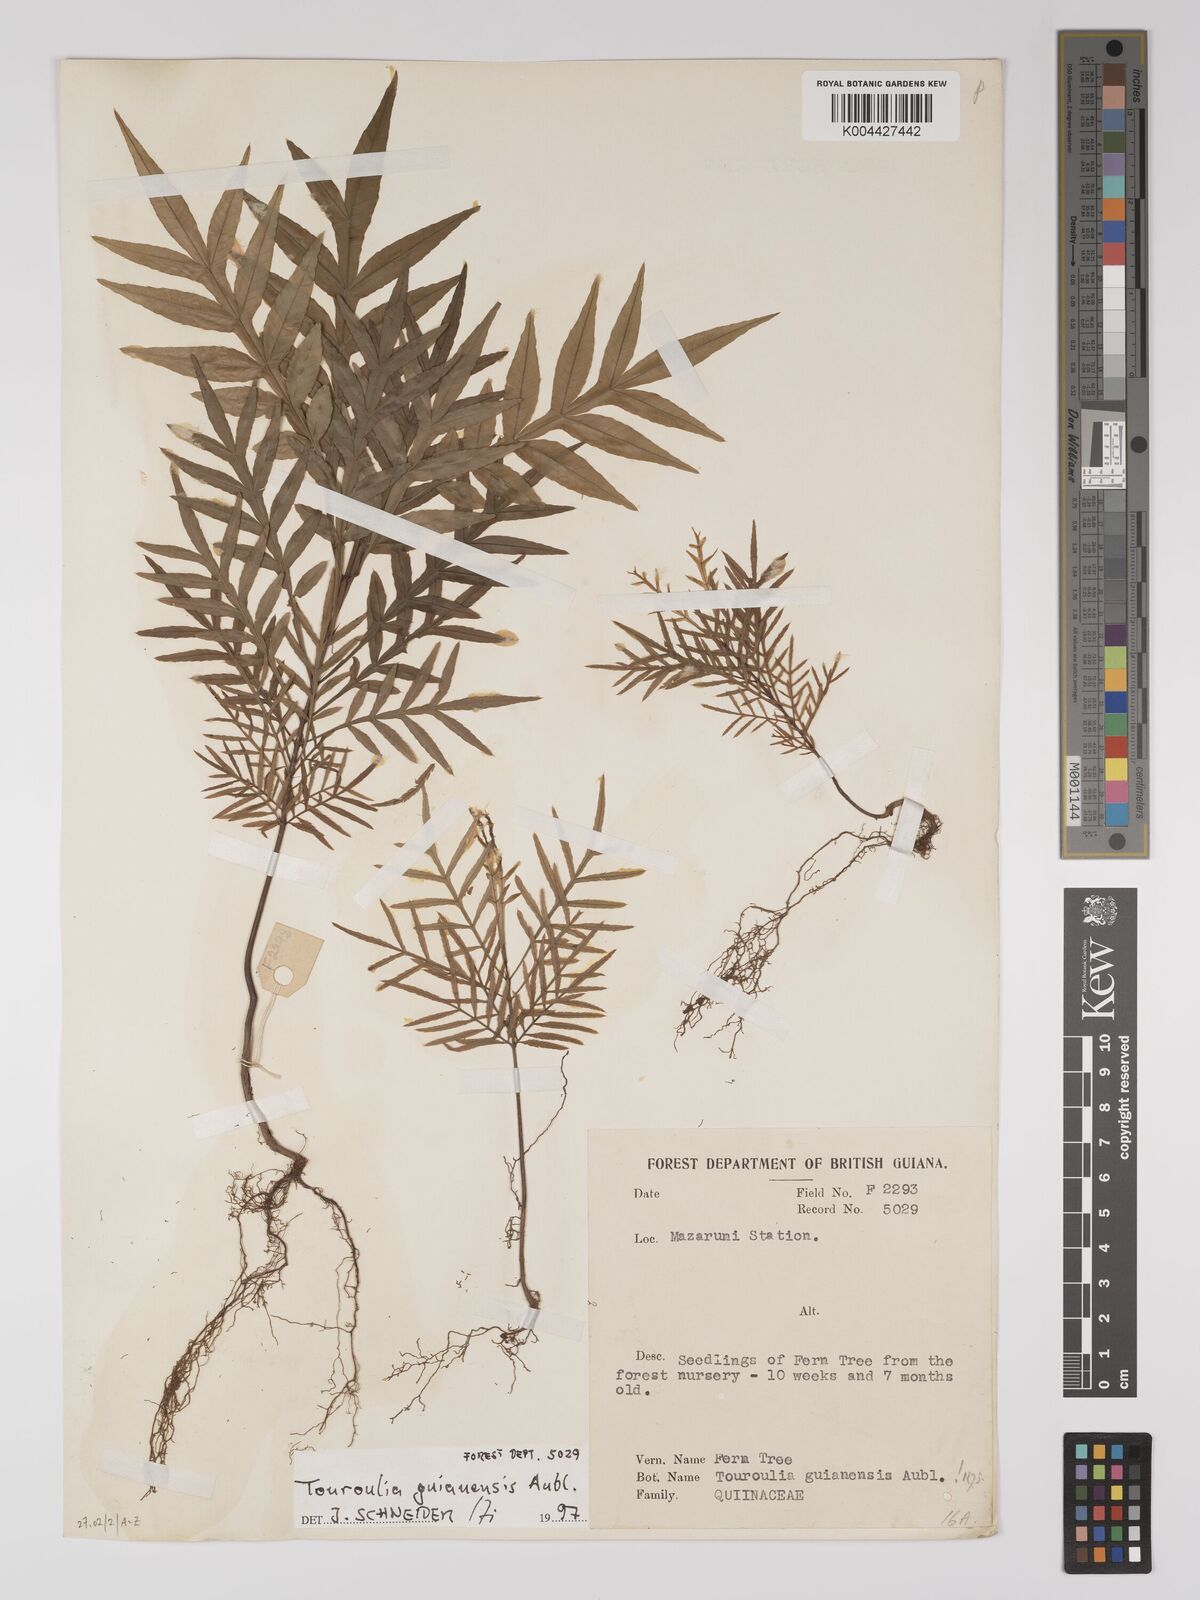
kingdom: Plantae
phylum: Tracheophyta
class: Magnoliopsida
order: Malpighiales
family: Quiinaceae
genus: Touroulia
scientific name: Touroulia guianensis
